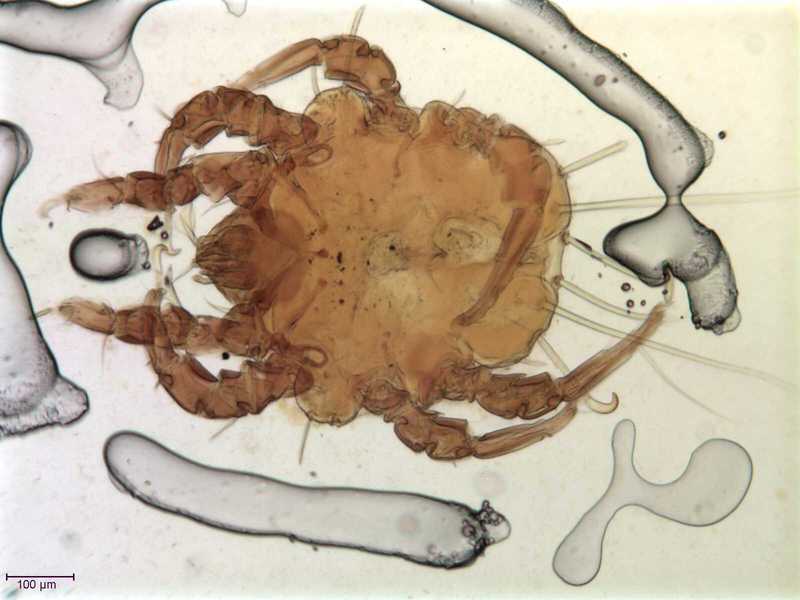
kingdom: Animalia
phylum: Arthropoda
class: Arachnida
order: Sarcoptiformes
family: Chaetodactylidae
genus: Sennertia
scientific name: Sennertia perturbans
